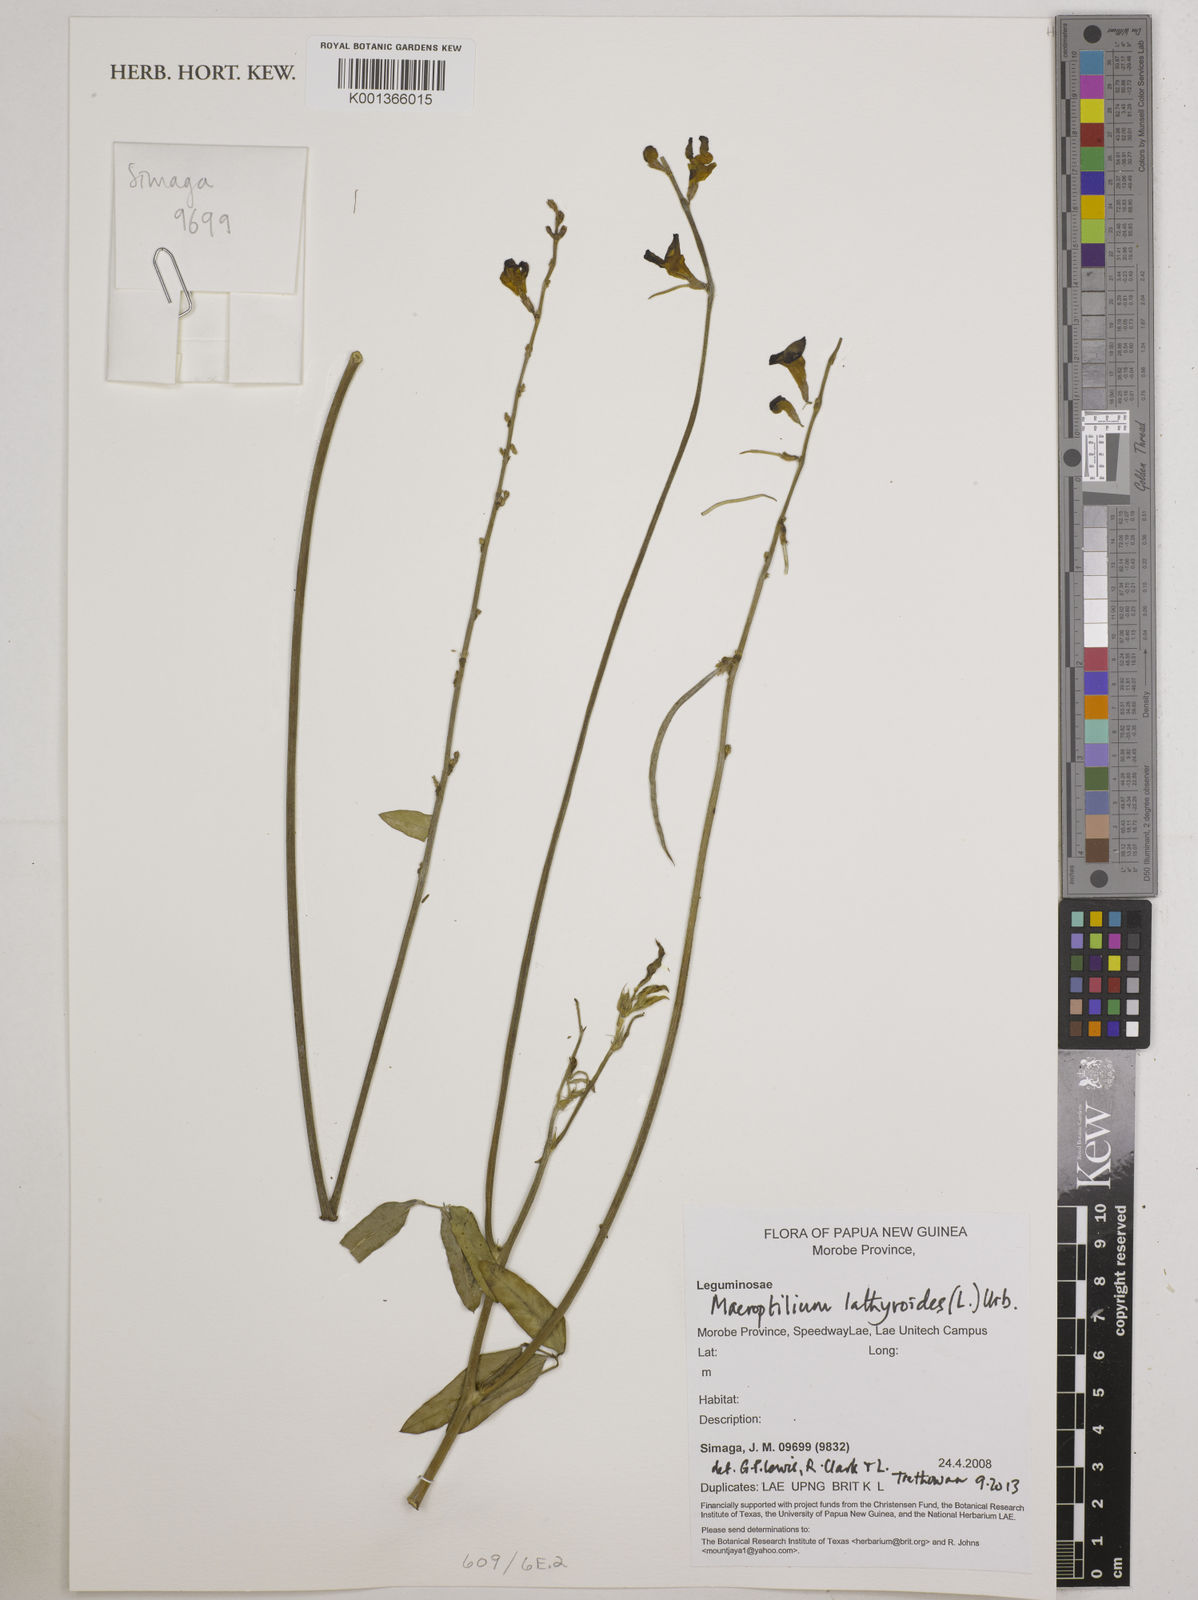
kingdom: Plantae
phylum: Tracheophyta
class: Magnoliopsida
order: Fabales
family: Fabaceae
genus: Macroptilium
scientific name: Macroptilium lathyroides
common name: Wild bushbean
